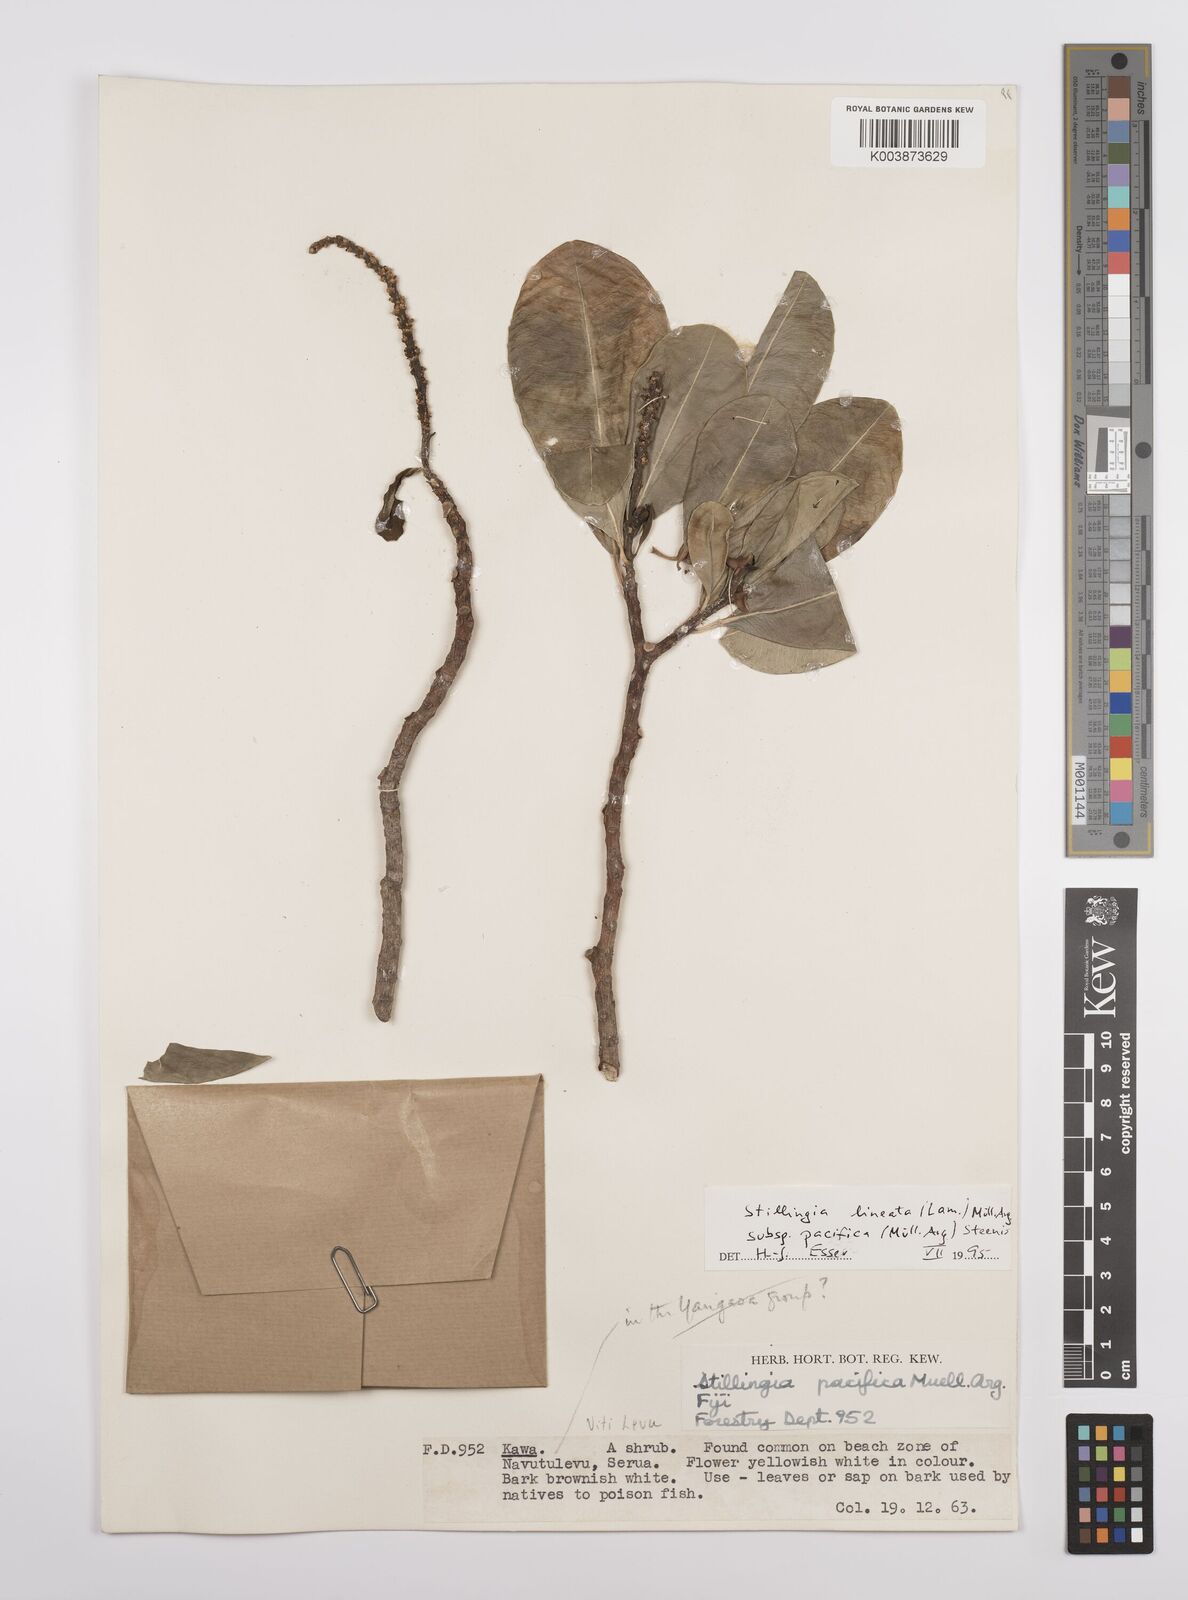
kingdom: Plantae
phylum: Tracheophyta
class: Magnoliopsida
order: Malpighiales
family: Euphorbiaceae
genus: Stillingia
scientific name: Stillingia lineata
